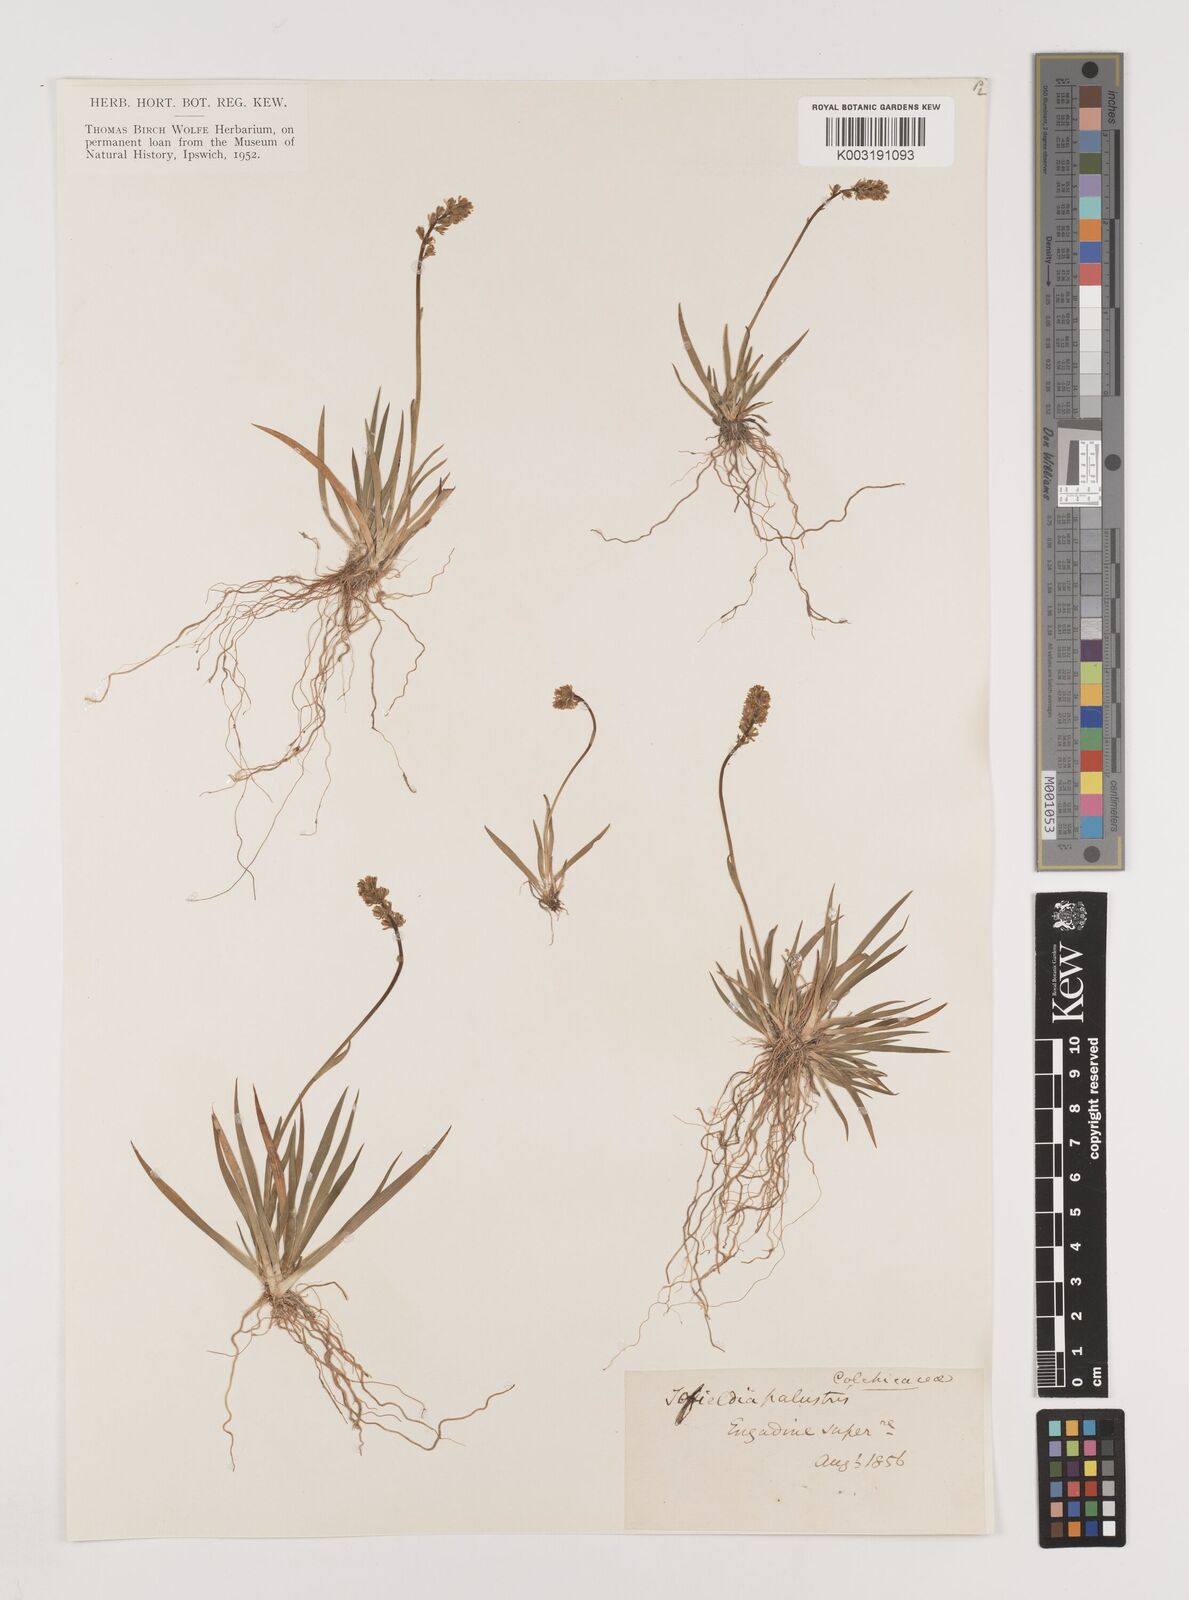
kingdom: Plantae
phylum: Tracheophyta
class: Liliopsida
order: Alismatales
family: Tofieldiaceae
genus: Tofieldia
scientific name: Tofieldia pusilla
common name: Scottish false asphodel
